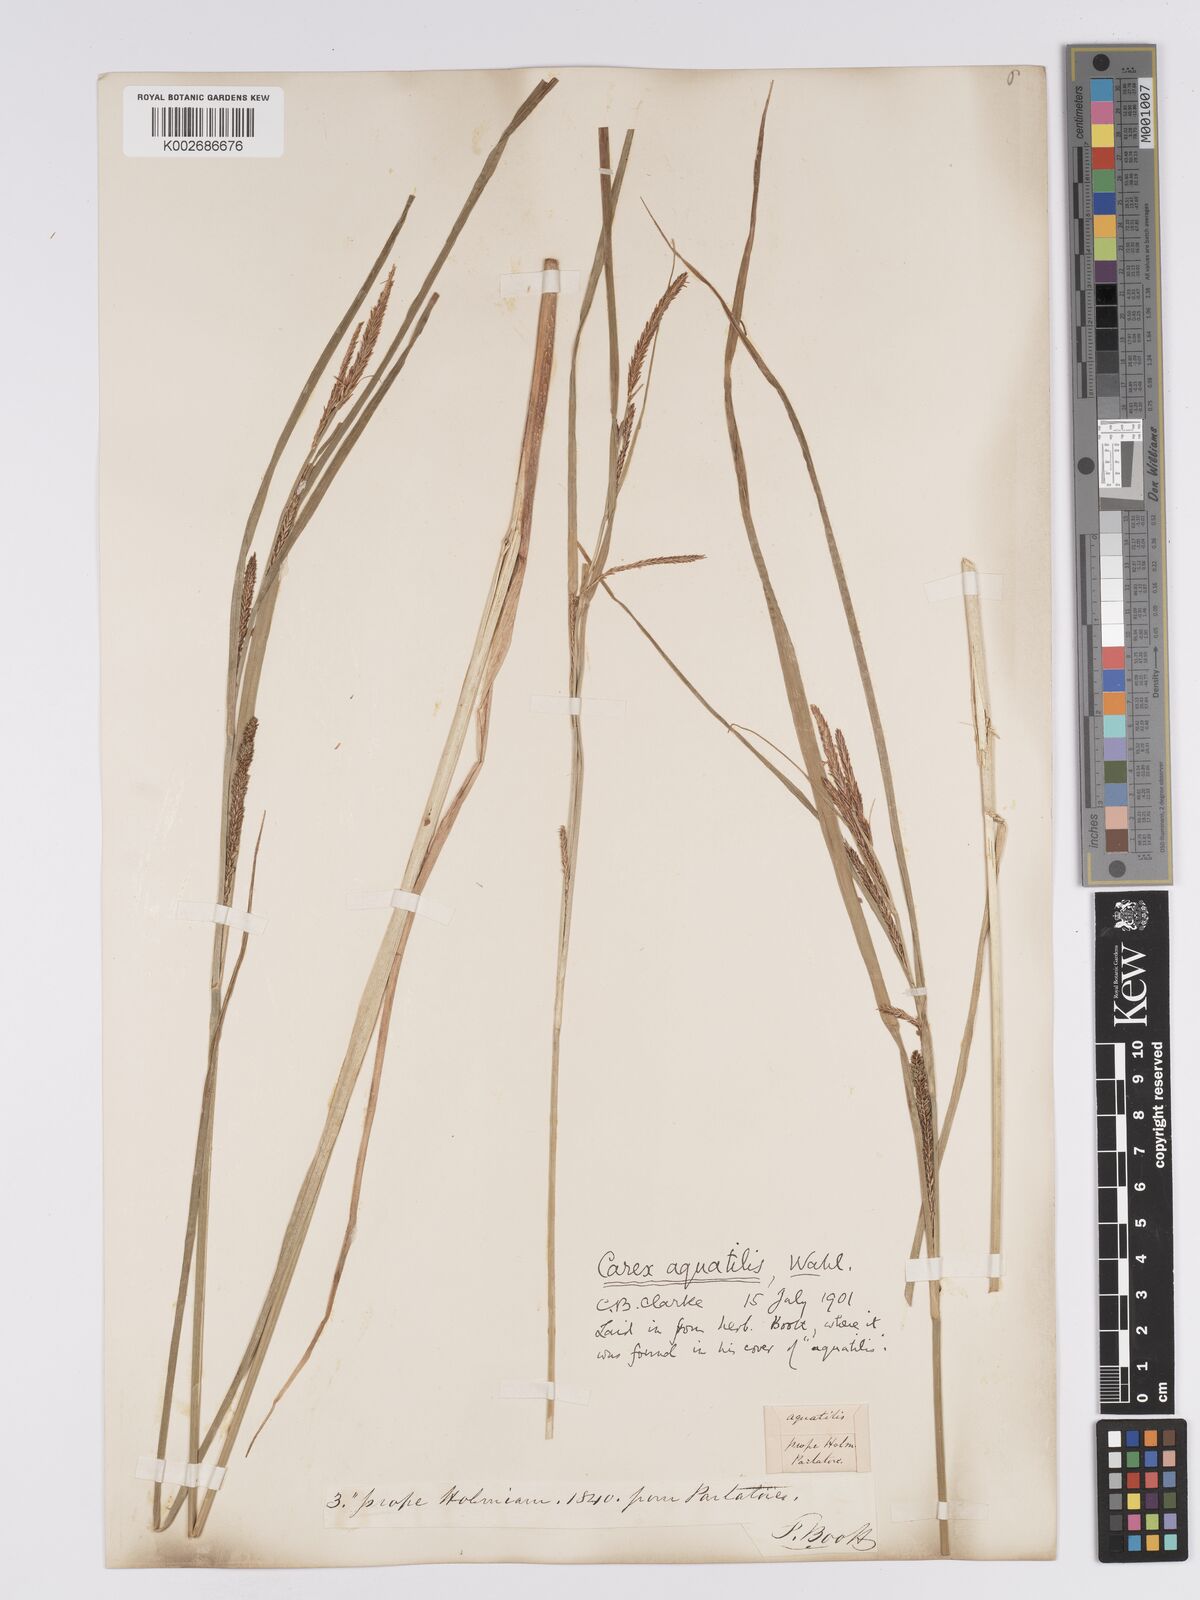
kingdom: Plantae
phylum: Tracheophyta
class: Liliopsida
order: Poales
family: Cyperaceae
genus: Carex
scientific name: Carex aquatilis
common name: Water sedge
